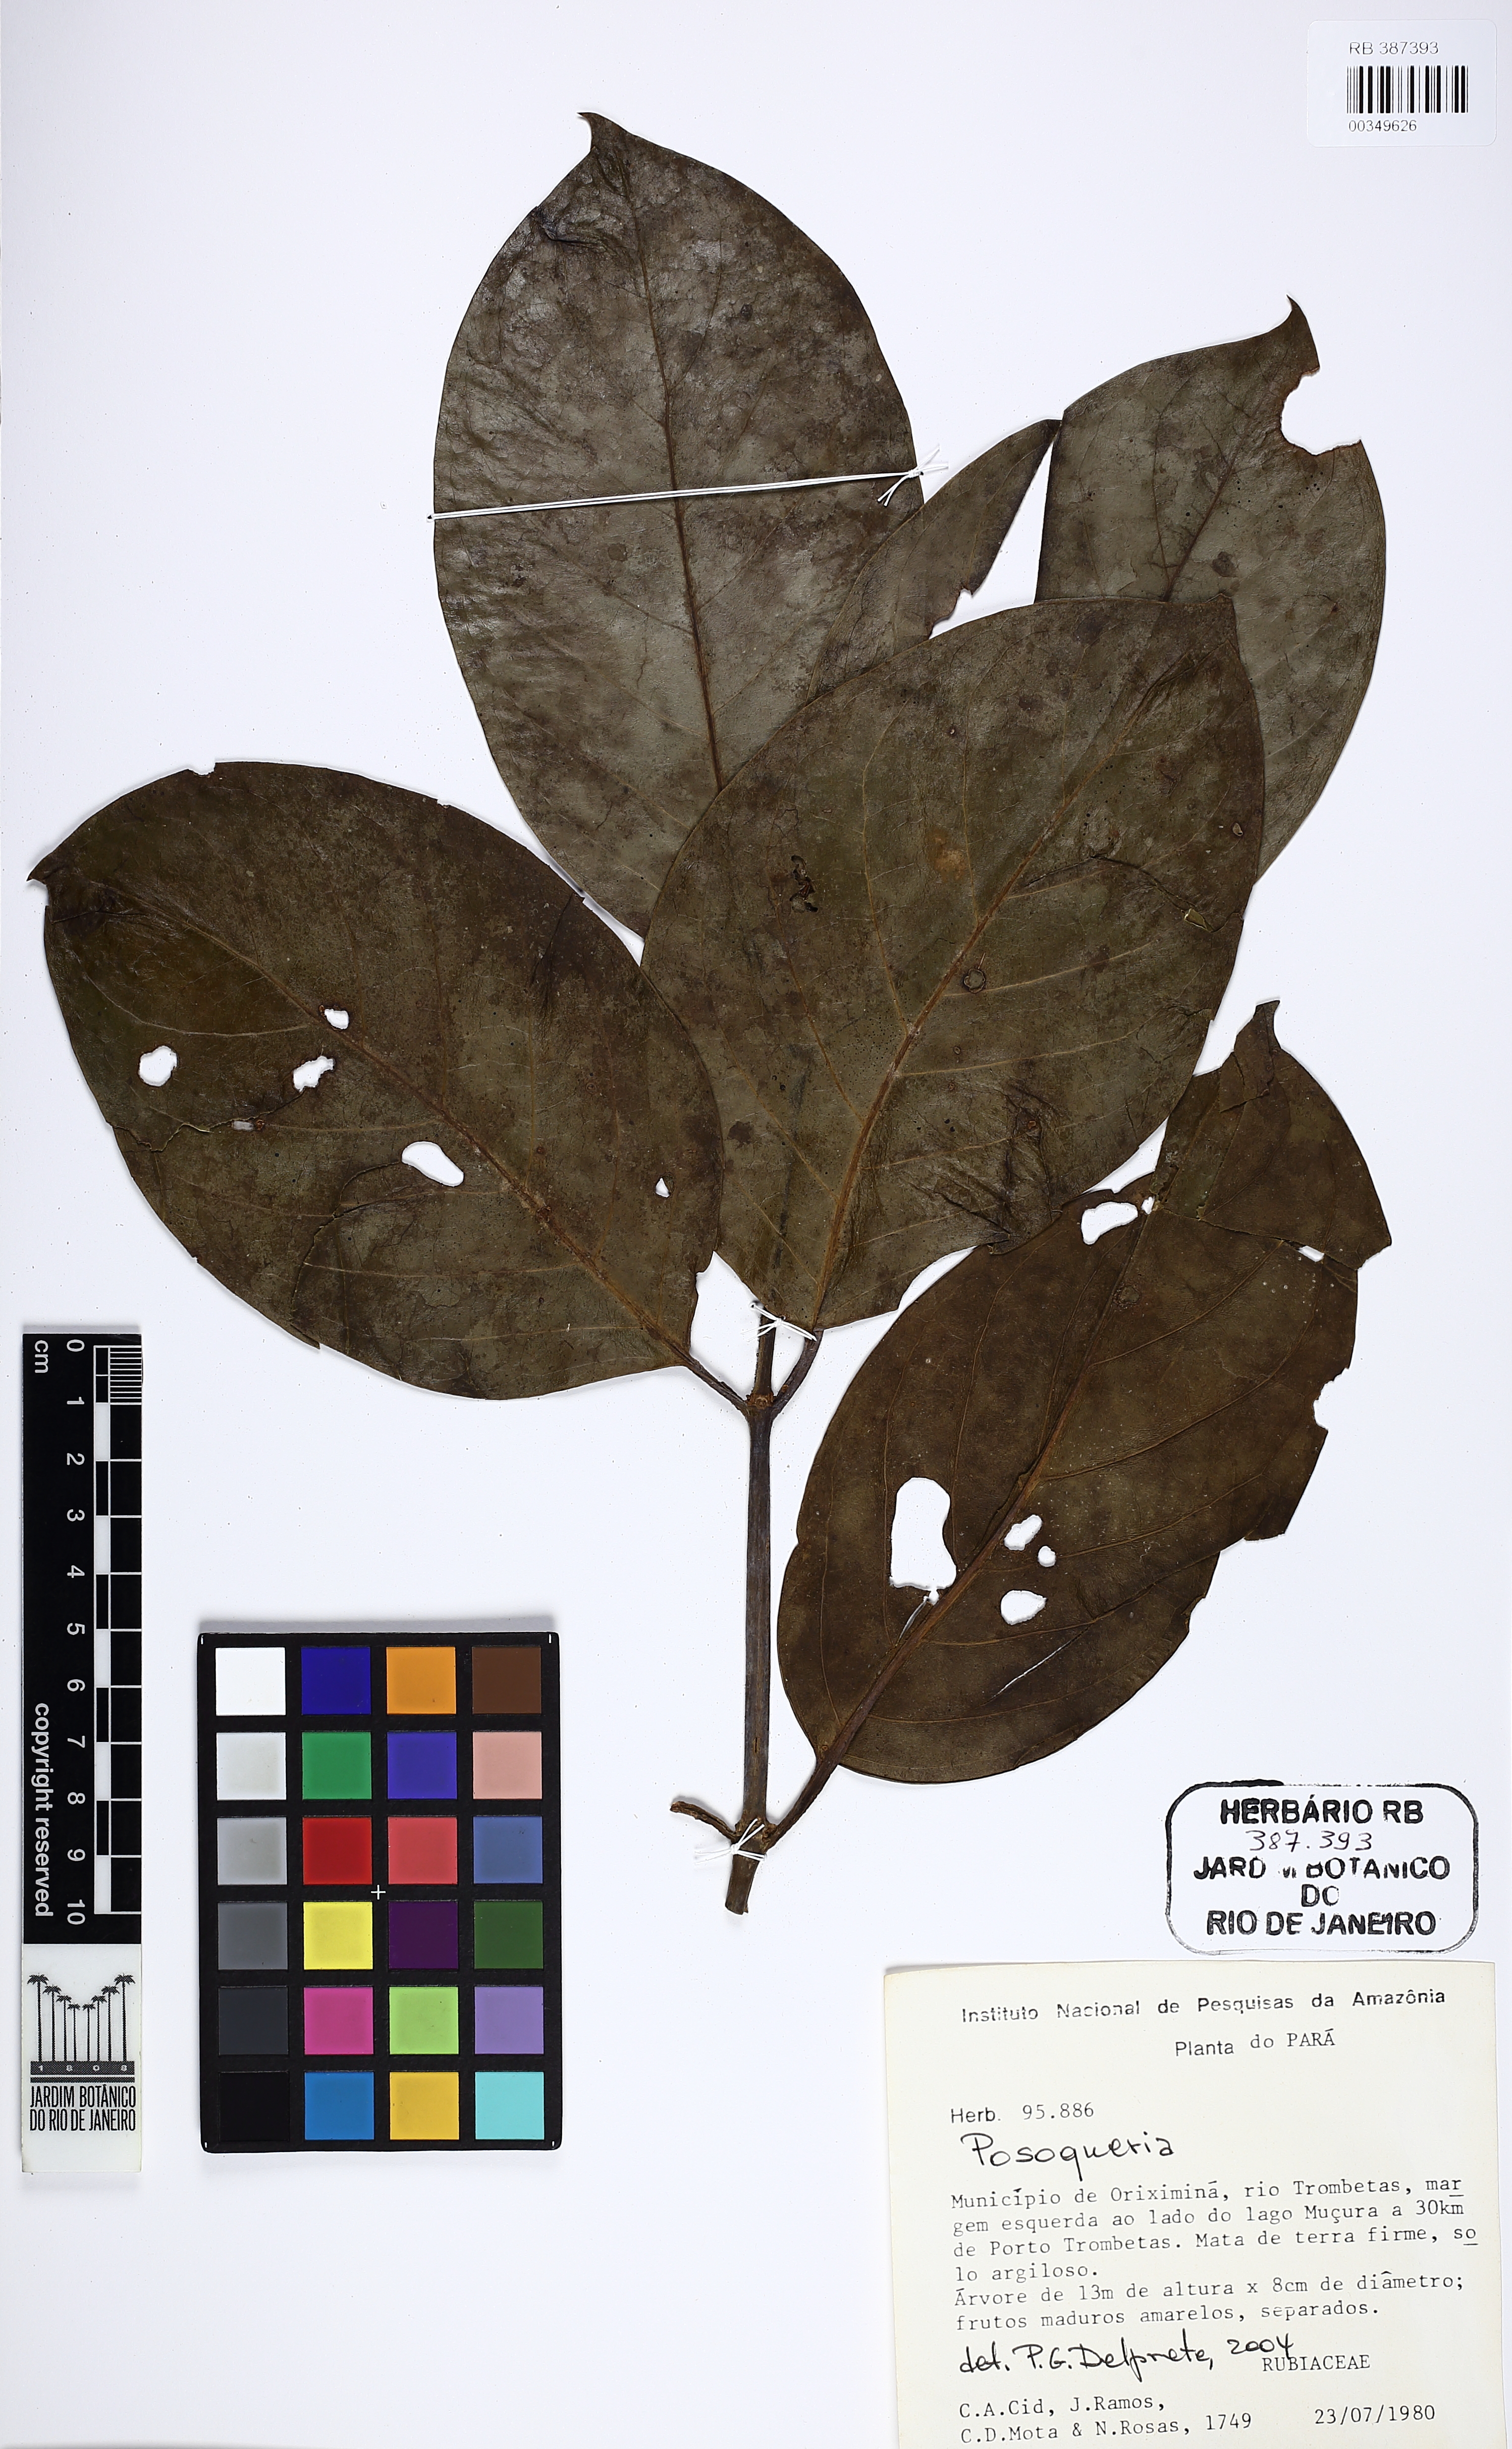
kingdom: Plantae
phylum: Tracheophyta
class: Magnoliopsida
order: Gentianales
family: Rubiaceae
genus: Posoqueria
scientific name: Posoqueria
